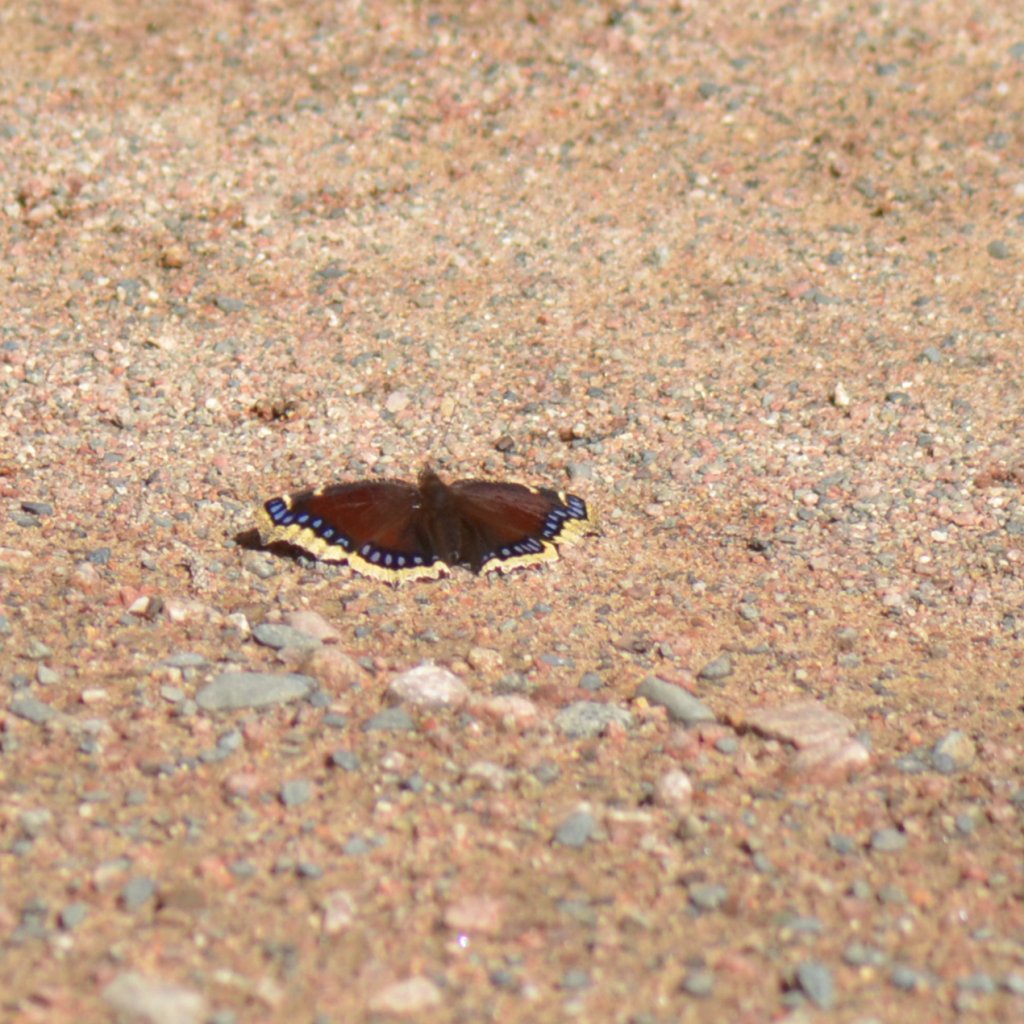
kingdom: Animalia
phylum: Arthropoda
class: Insecta
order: Lepidoptera
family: Nymphalidae
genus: Nymphalis
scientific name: Nymphalis antiopa
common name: Mourning Cloak
